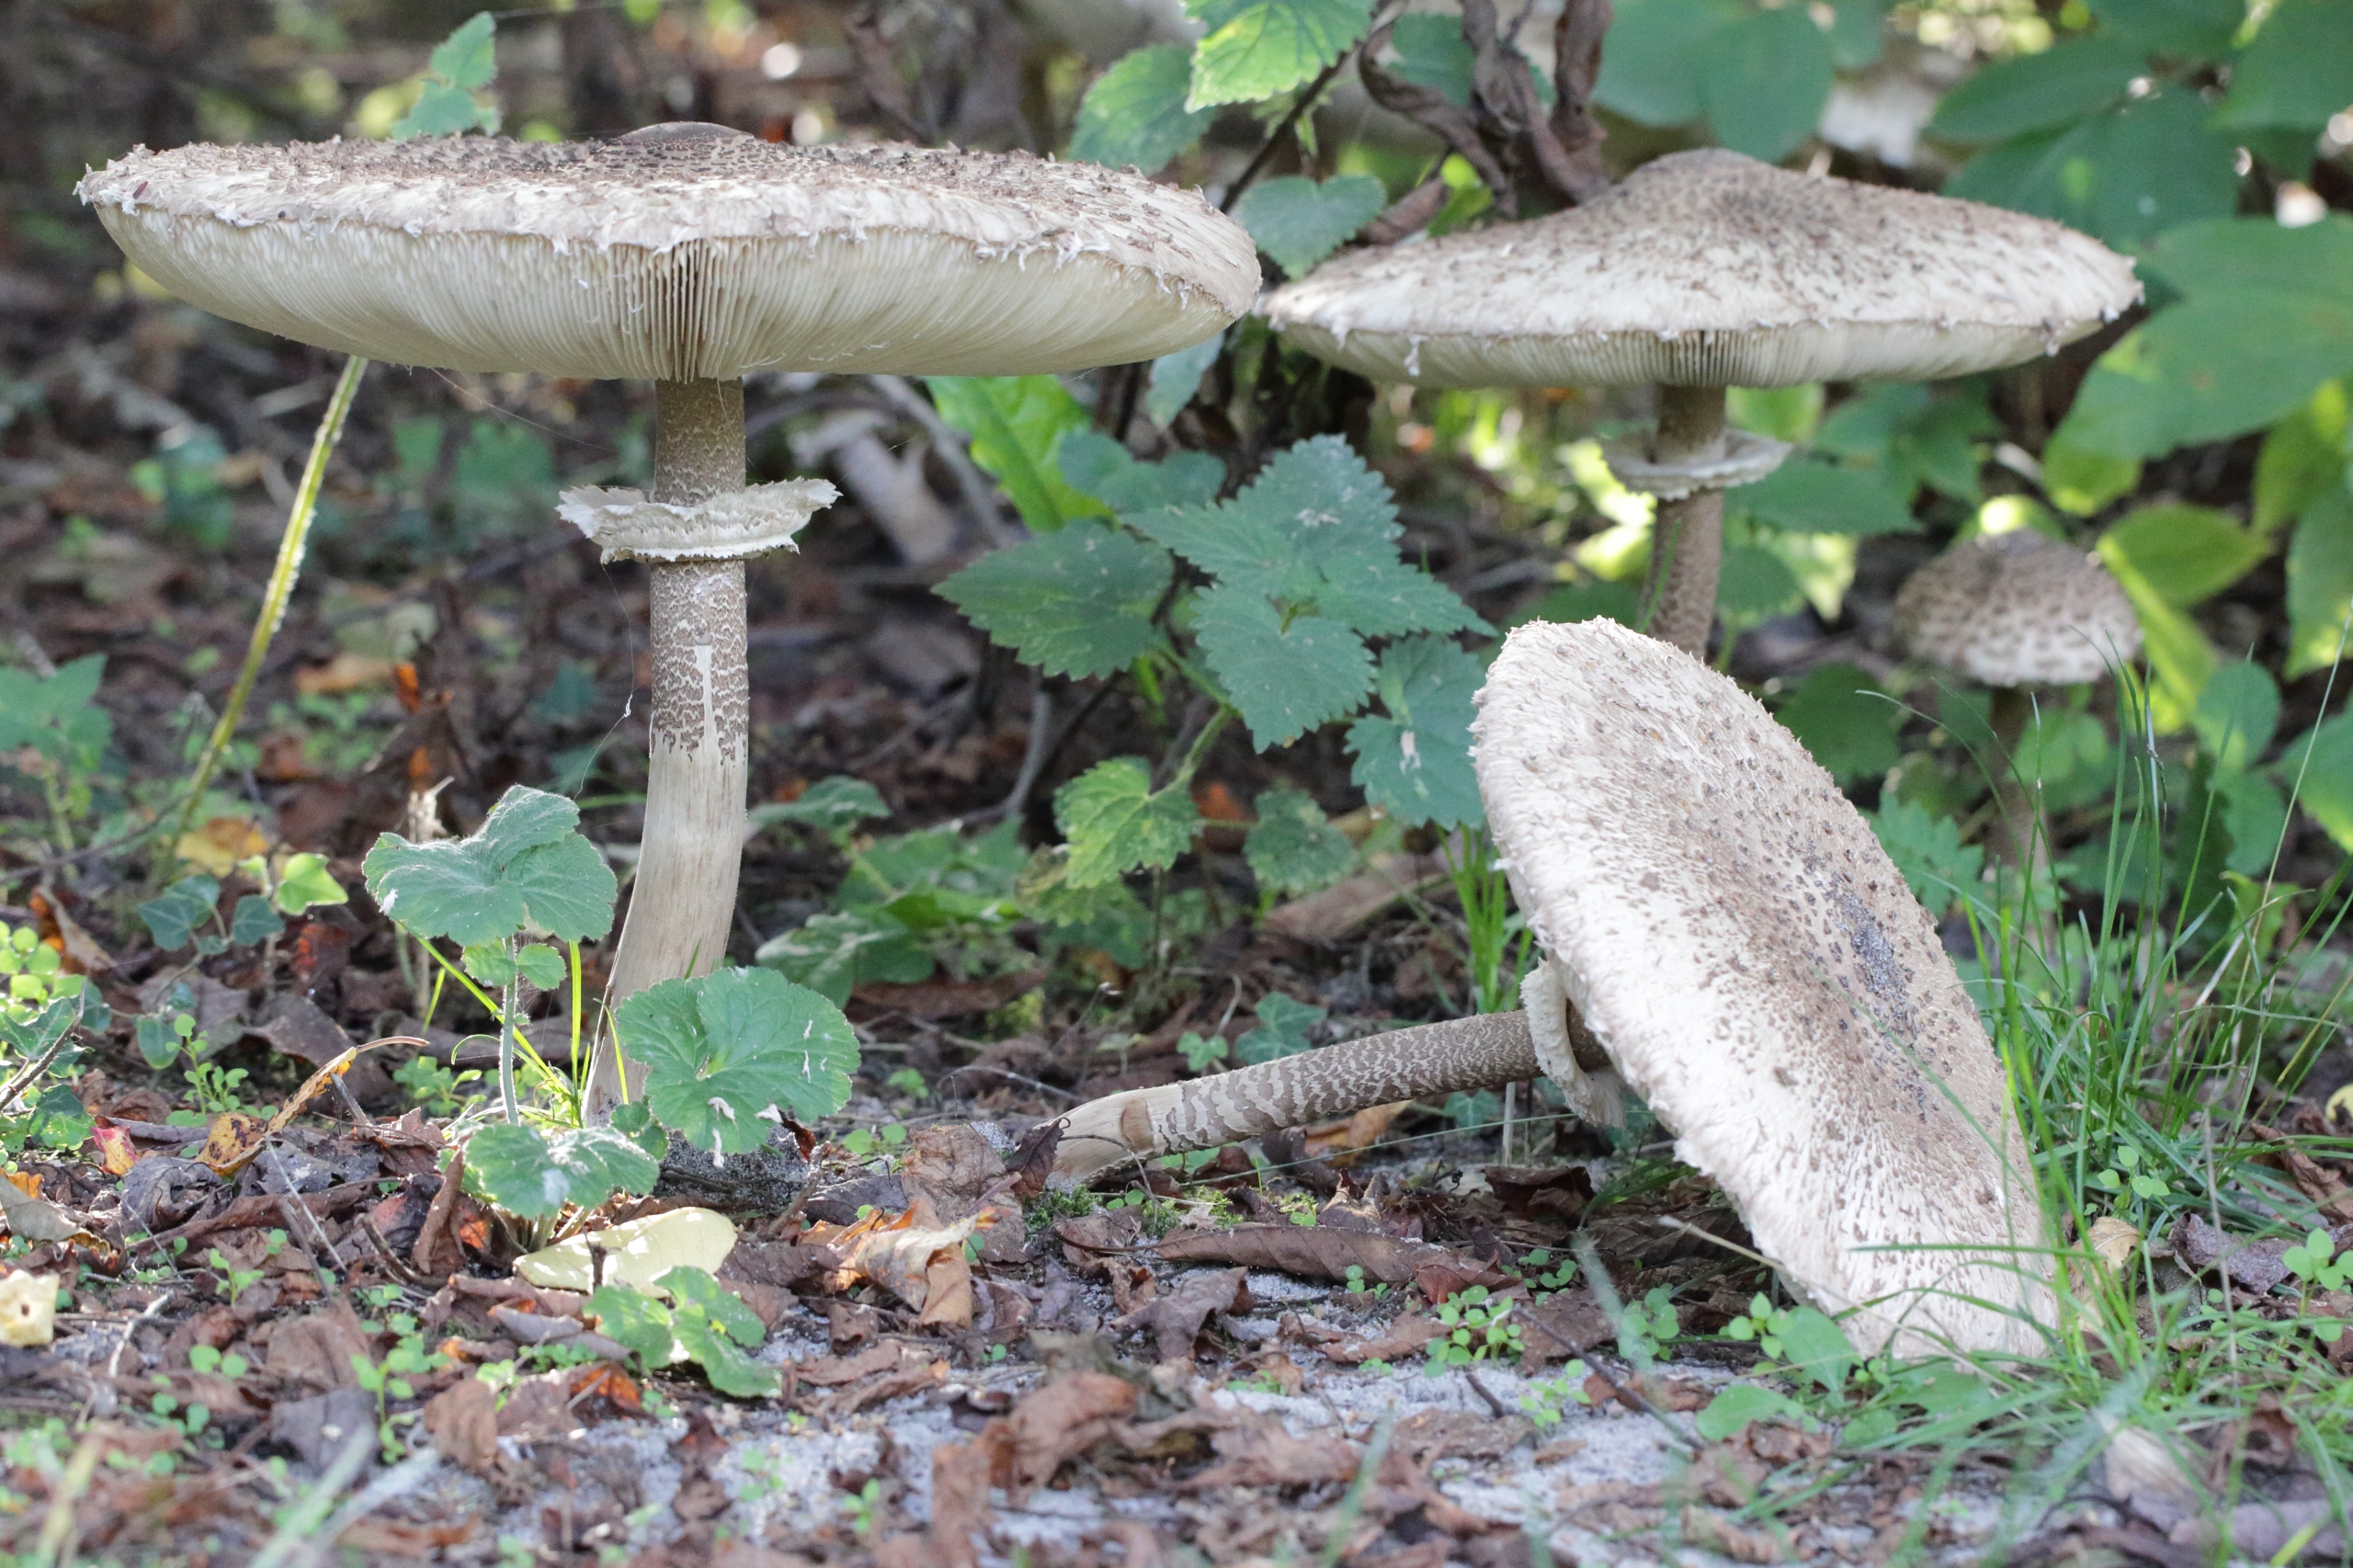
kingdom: Fungi
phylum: Basidiomycota
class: Agaricomycetes
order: Agaricales
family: Agaricaceae
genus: Macrolepiota
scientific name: Macrolepiota procera
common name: Stor kæmpeparasolhat
